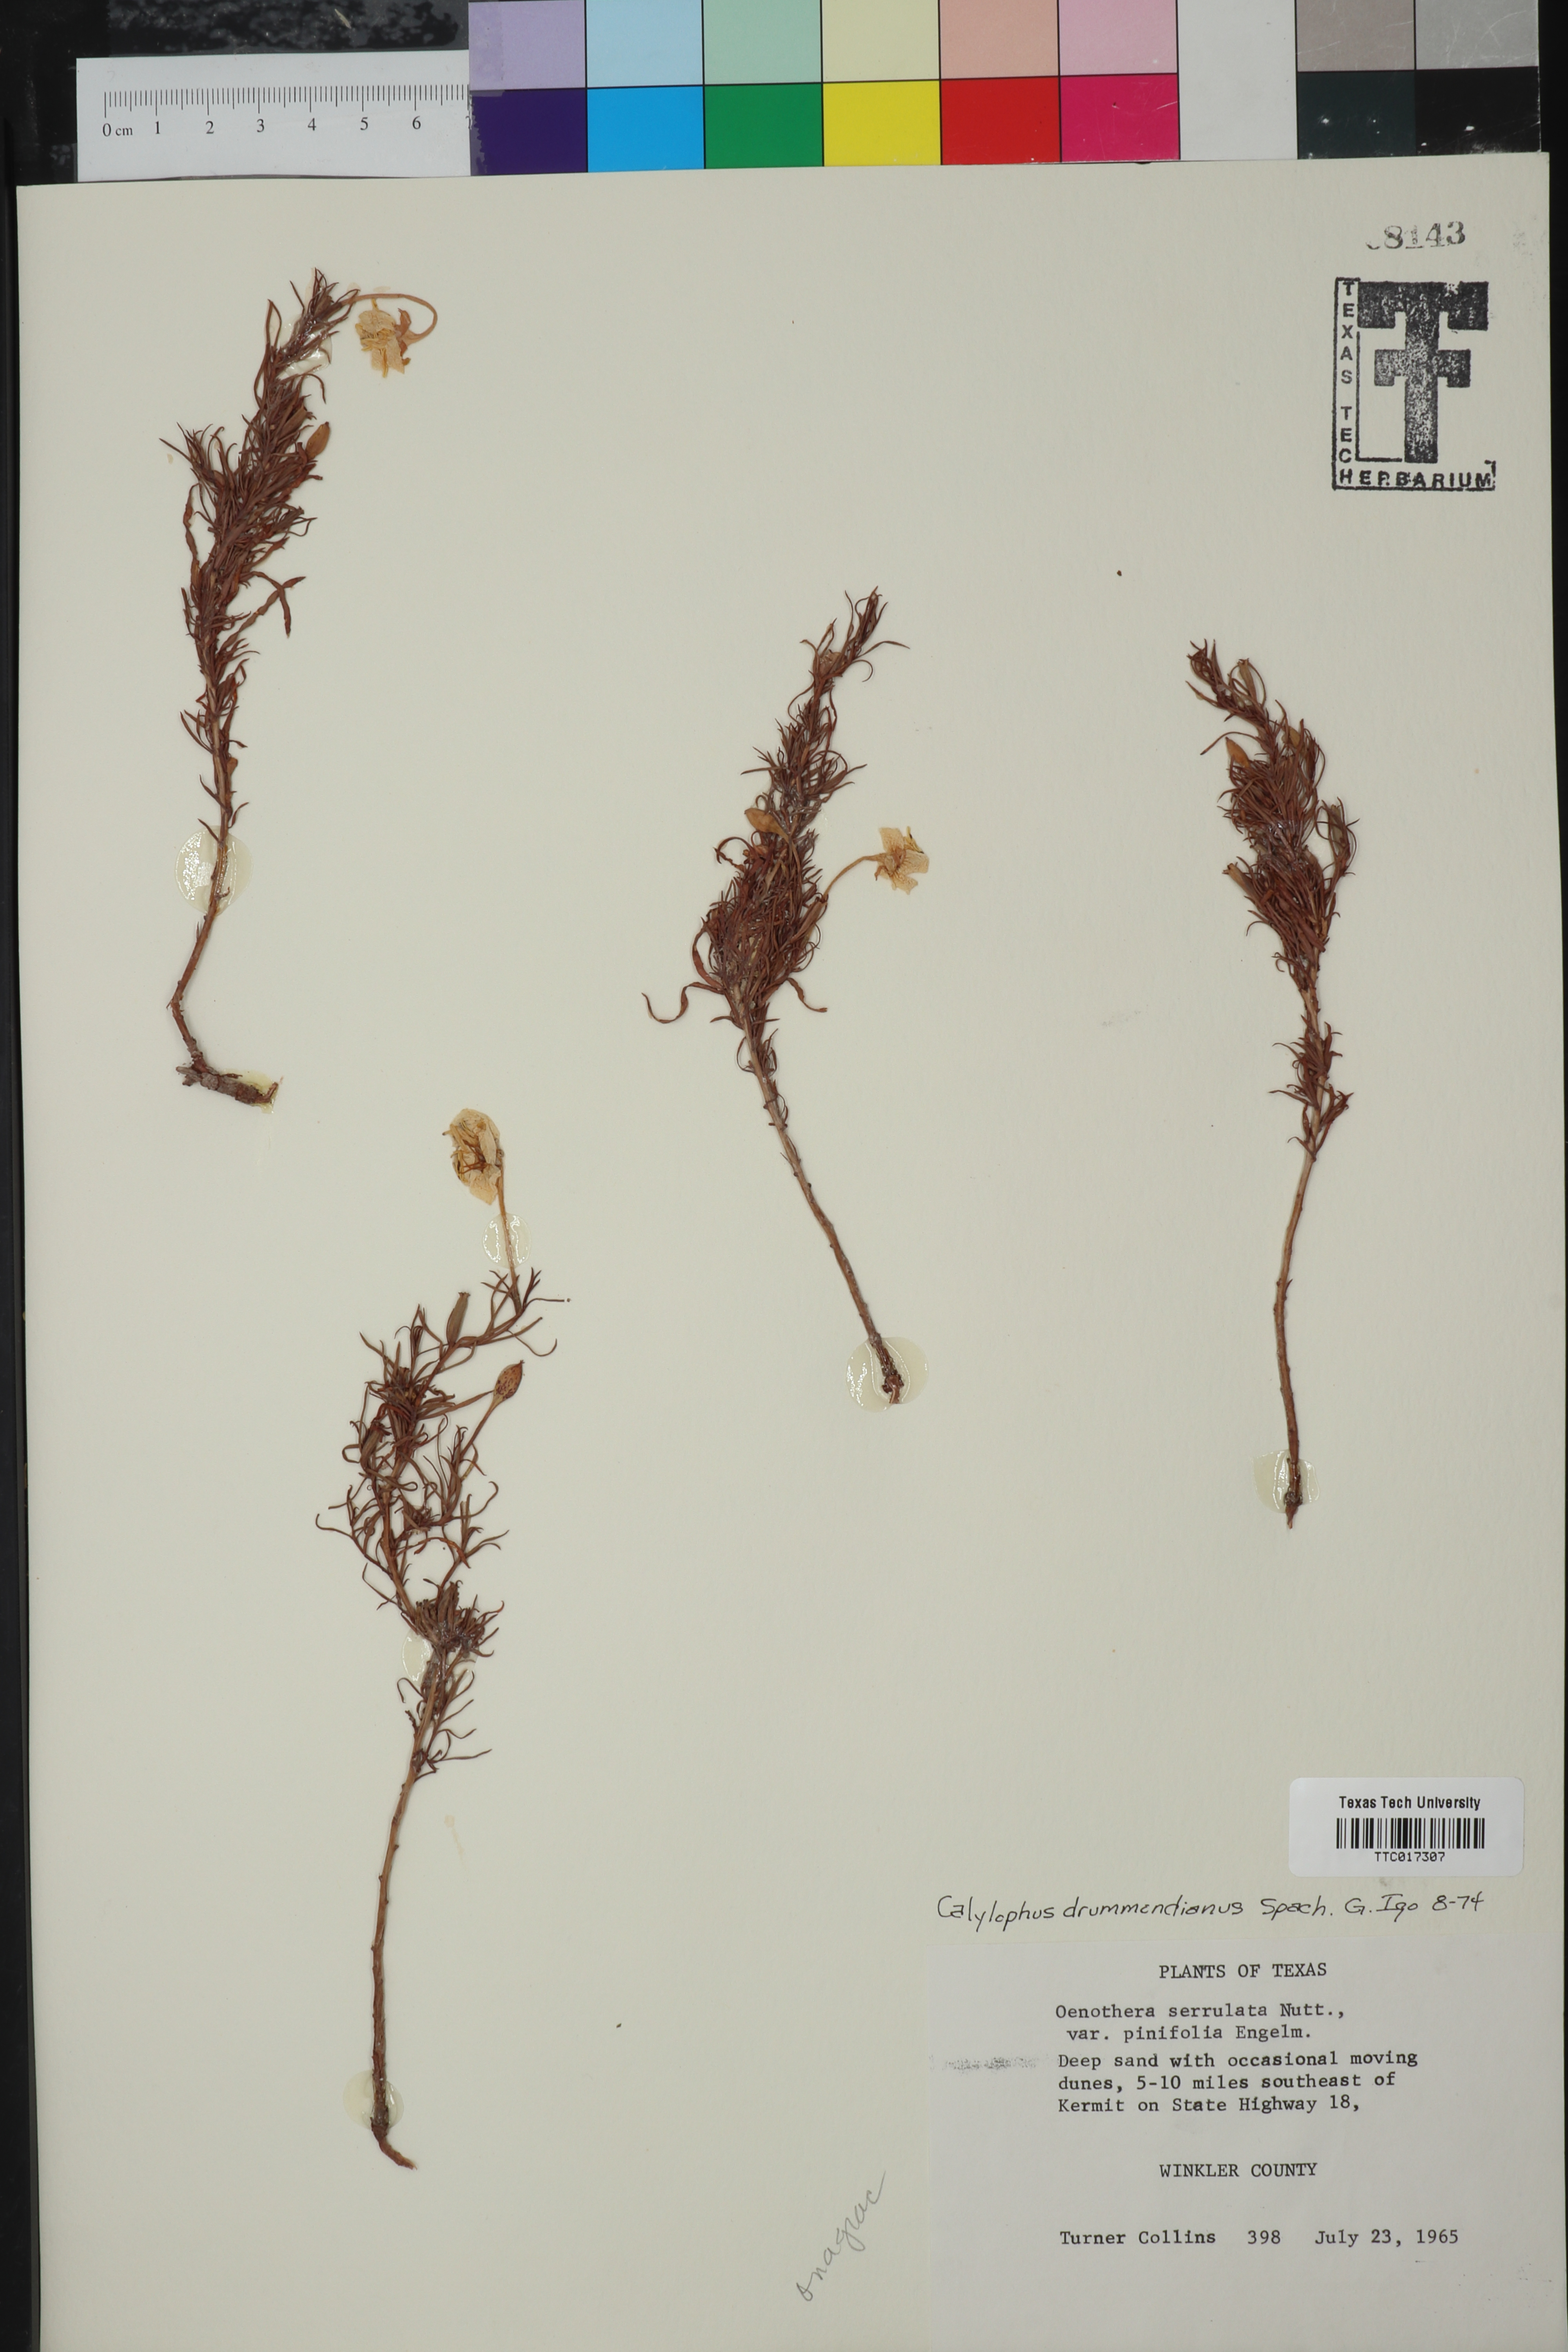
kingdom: Plantae
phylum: Tracheophyta
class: Magnoliopsida
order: Myrtales
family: Onagraceae
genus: Oenothera
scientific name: Oenothera serrulata
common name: Half-shrub calylophus
